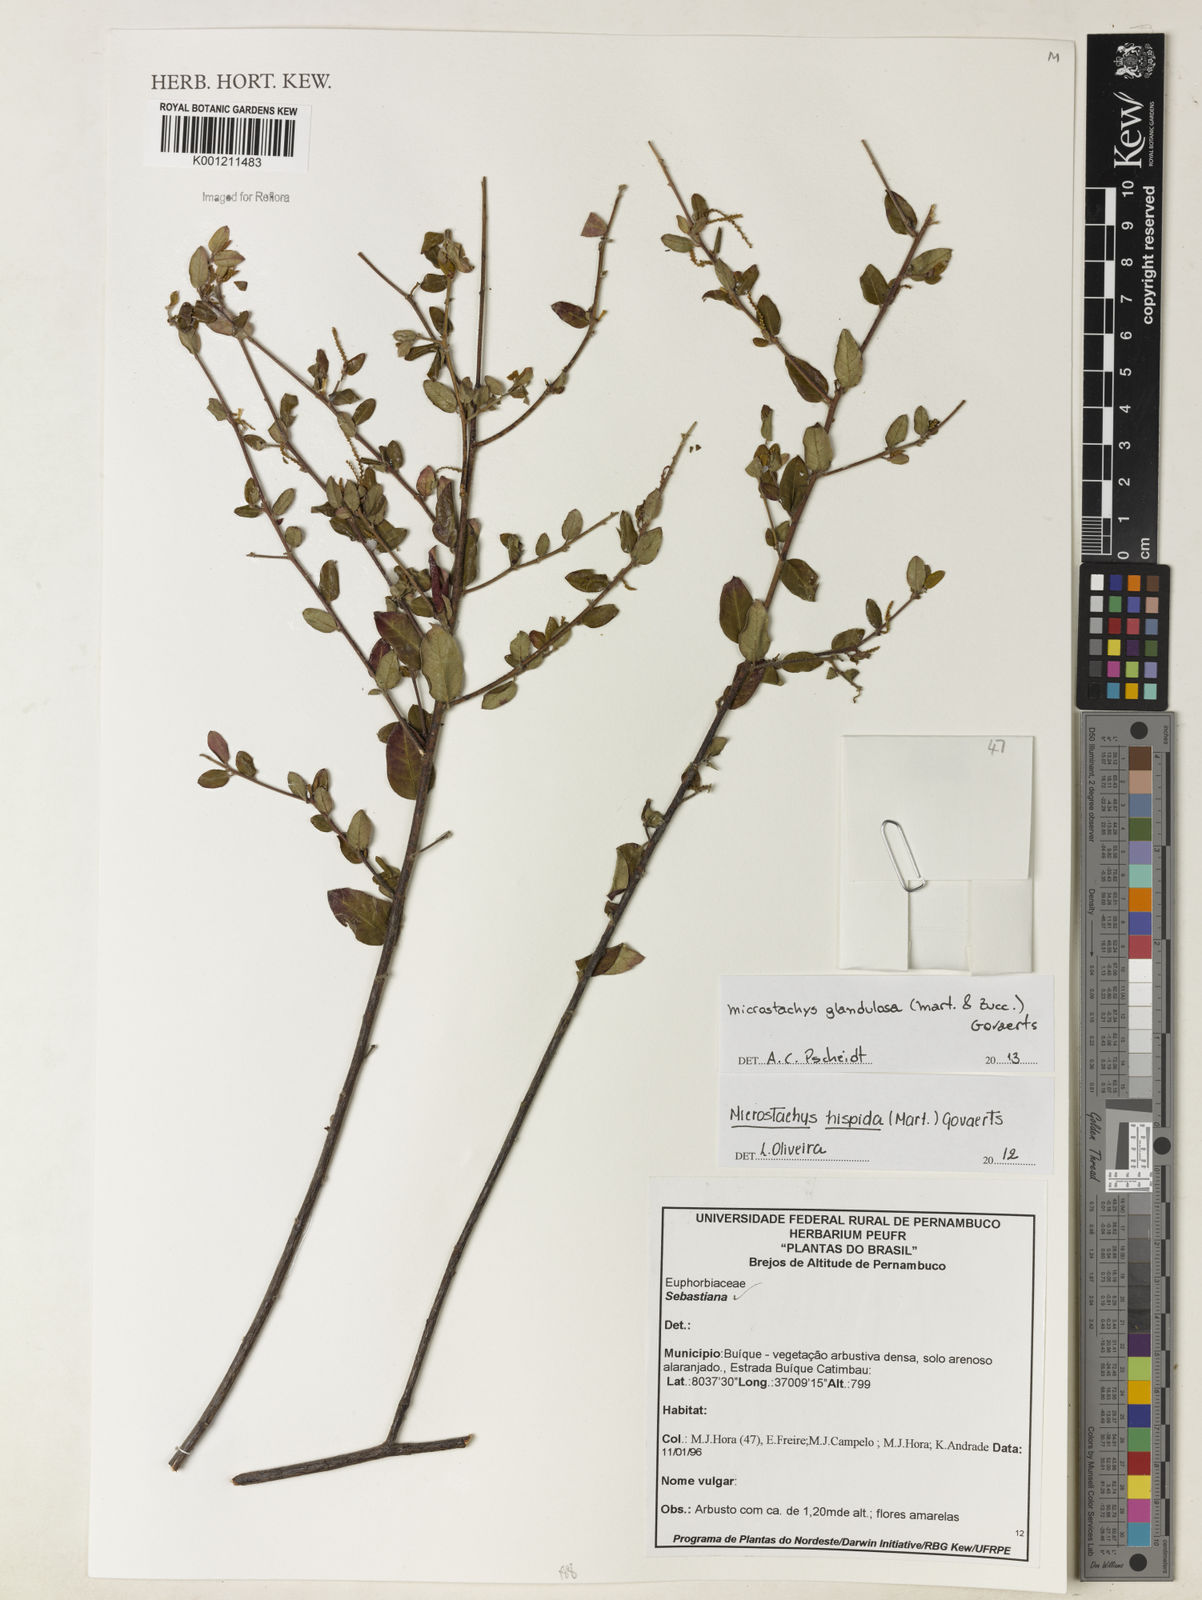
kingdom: Plantae
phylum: Tracheophyta
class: Magnoliopsida
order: Malpighiales
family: Euphorbiaceae
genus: Microstachys
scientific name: Microstachys glandulosa
